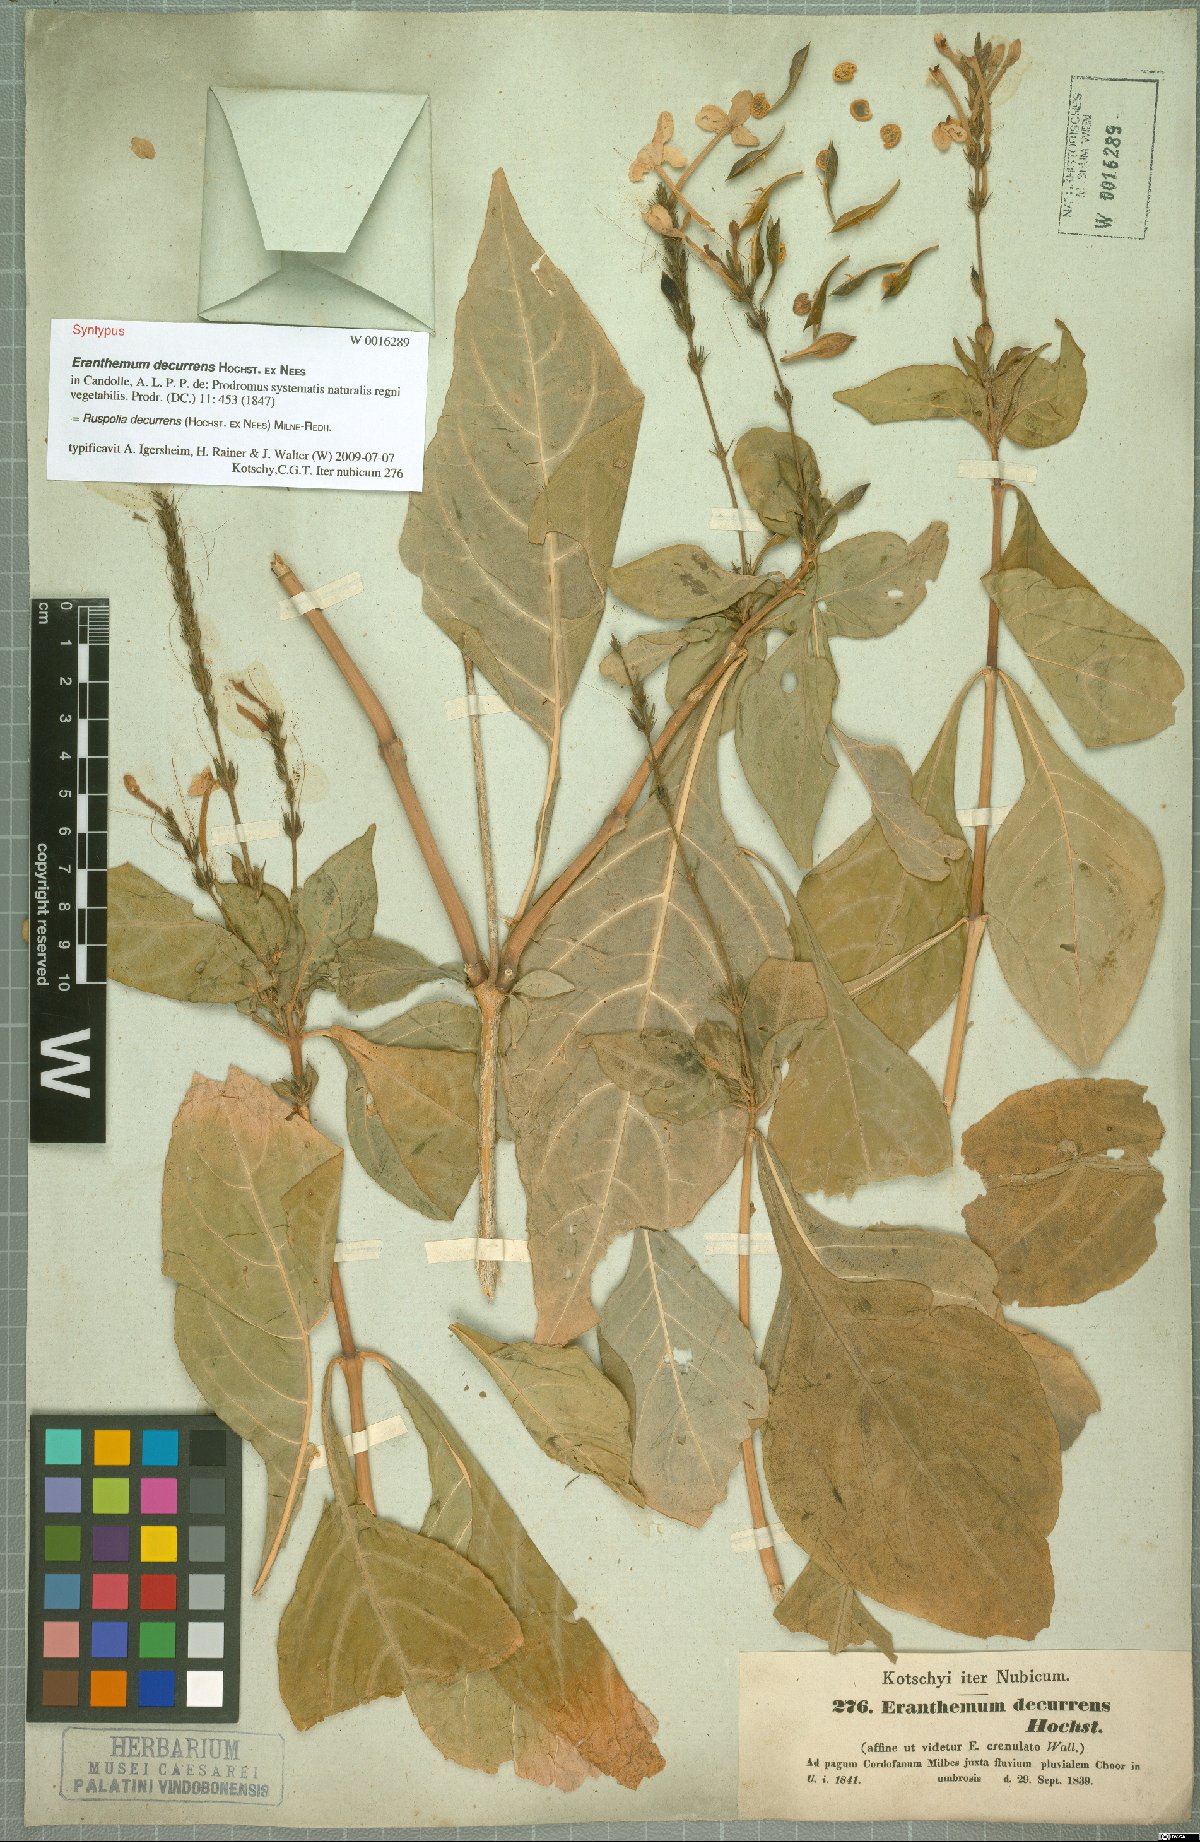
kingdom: Plantae
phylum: Tracheophyta
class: Magnoliopsida
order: Lamiales
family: Acanthaceae
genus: Ruspolia
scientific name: Ruspolia decurrens
